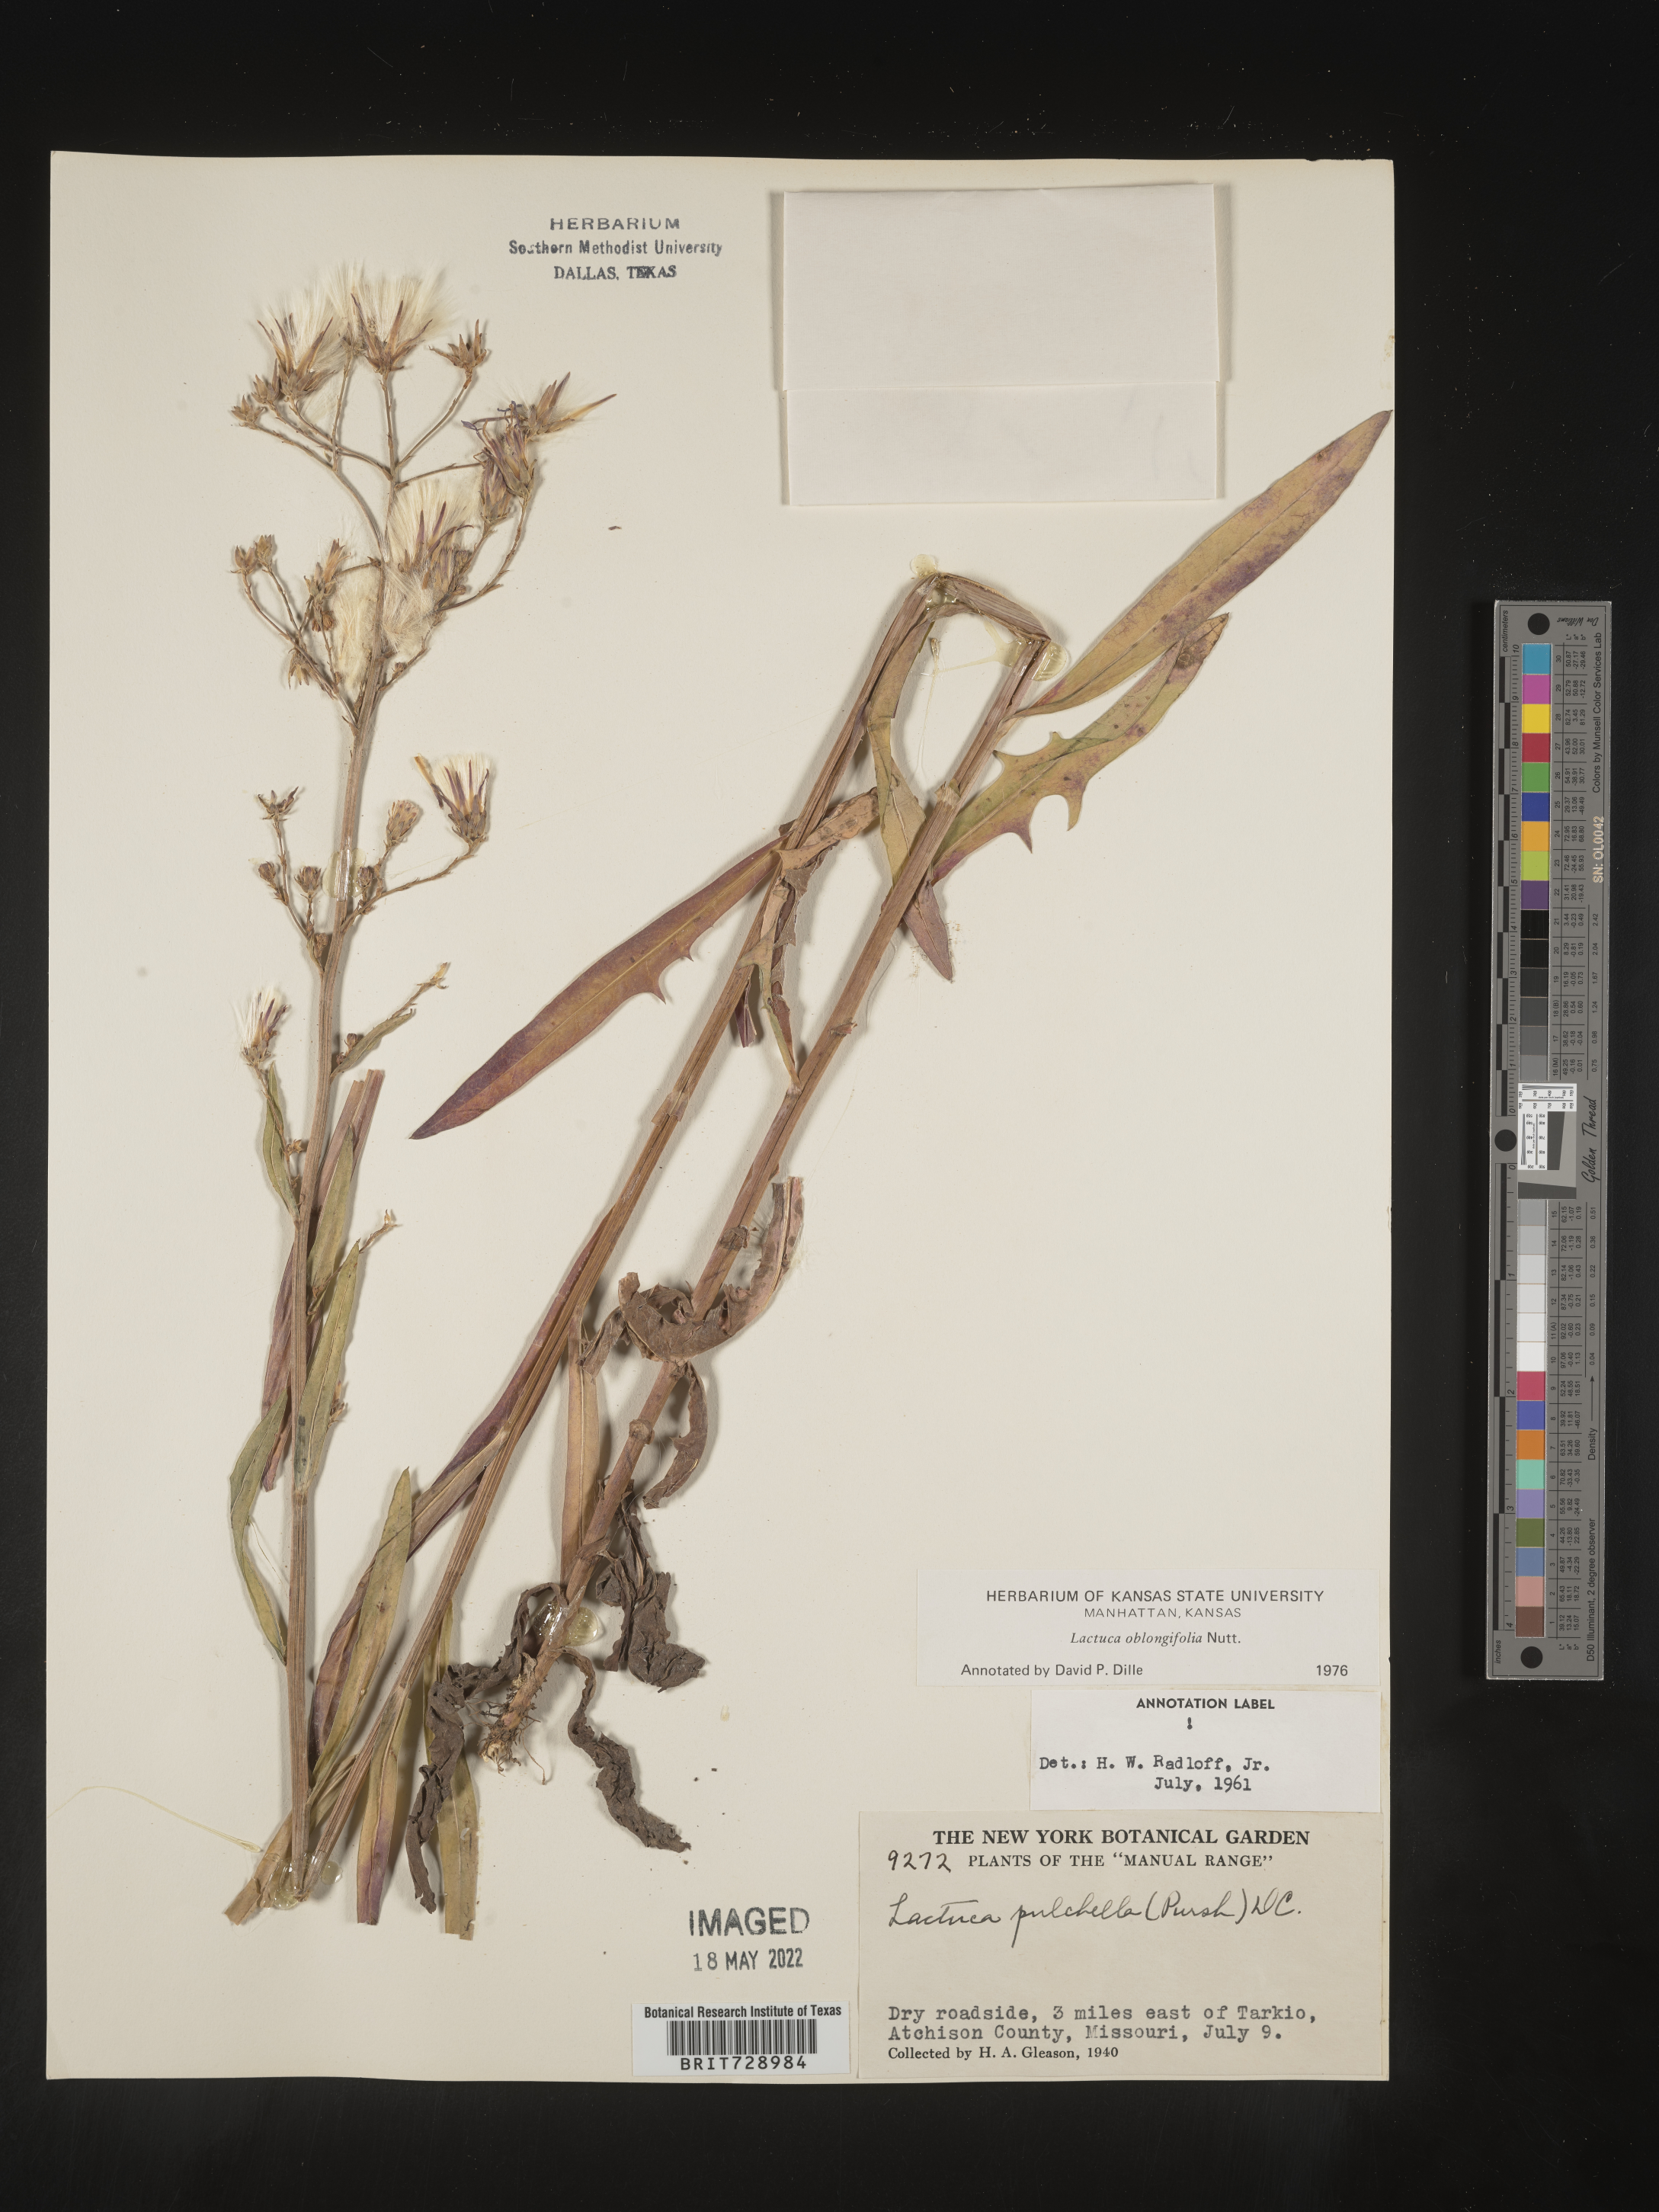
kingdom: Plantae
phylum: Tracheophyta
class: Magnoliopsida
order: Asterales
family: Asteraceae
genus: Lactuca
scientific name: Lactuca pulchella
